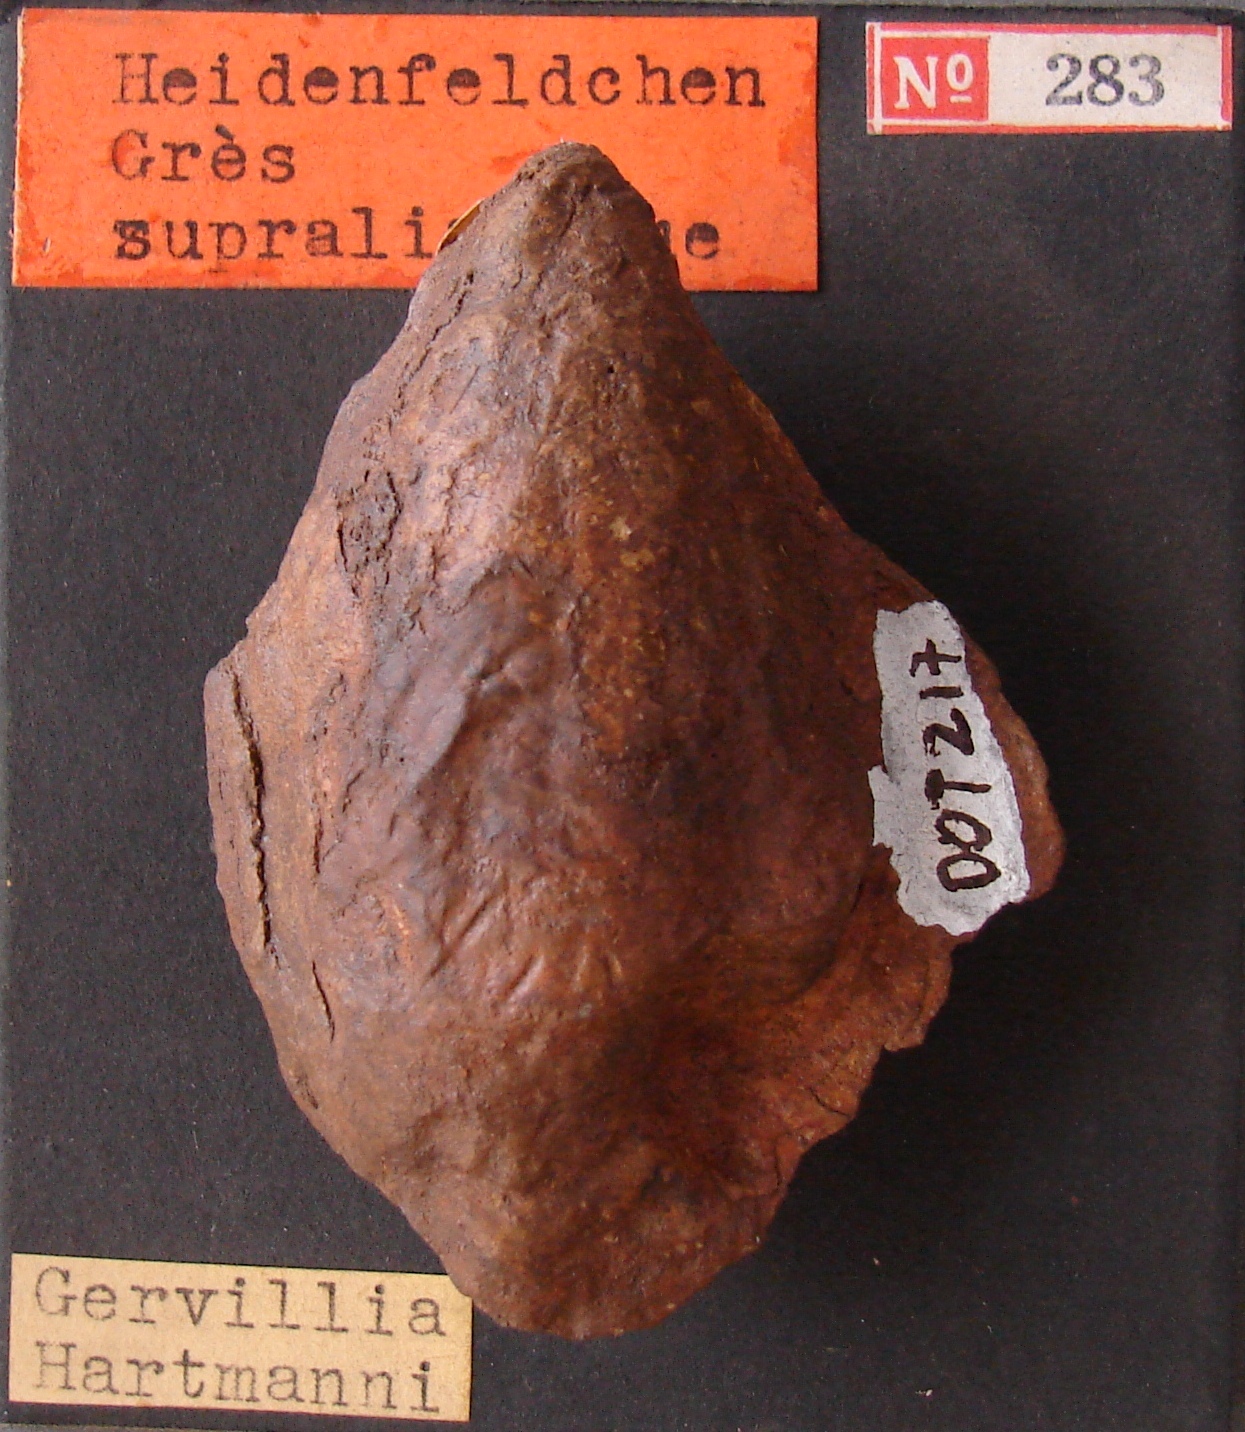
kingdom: Animalia
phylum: Mollusca
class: Bivalvia
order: Ostreida
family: Bakevelliidae
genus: Gervillia
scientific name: Gervillia hartmanni
